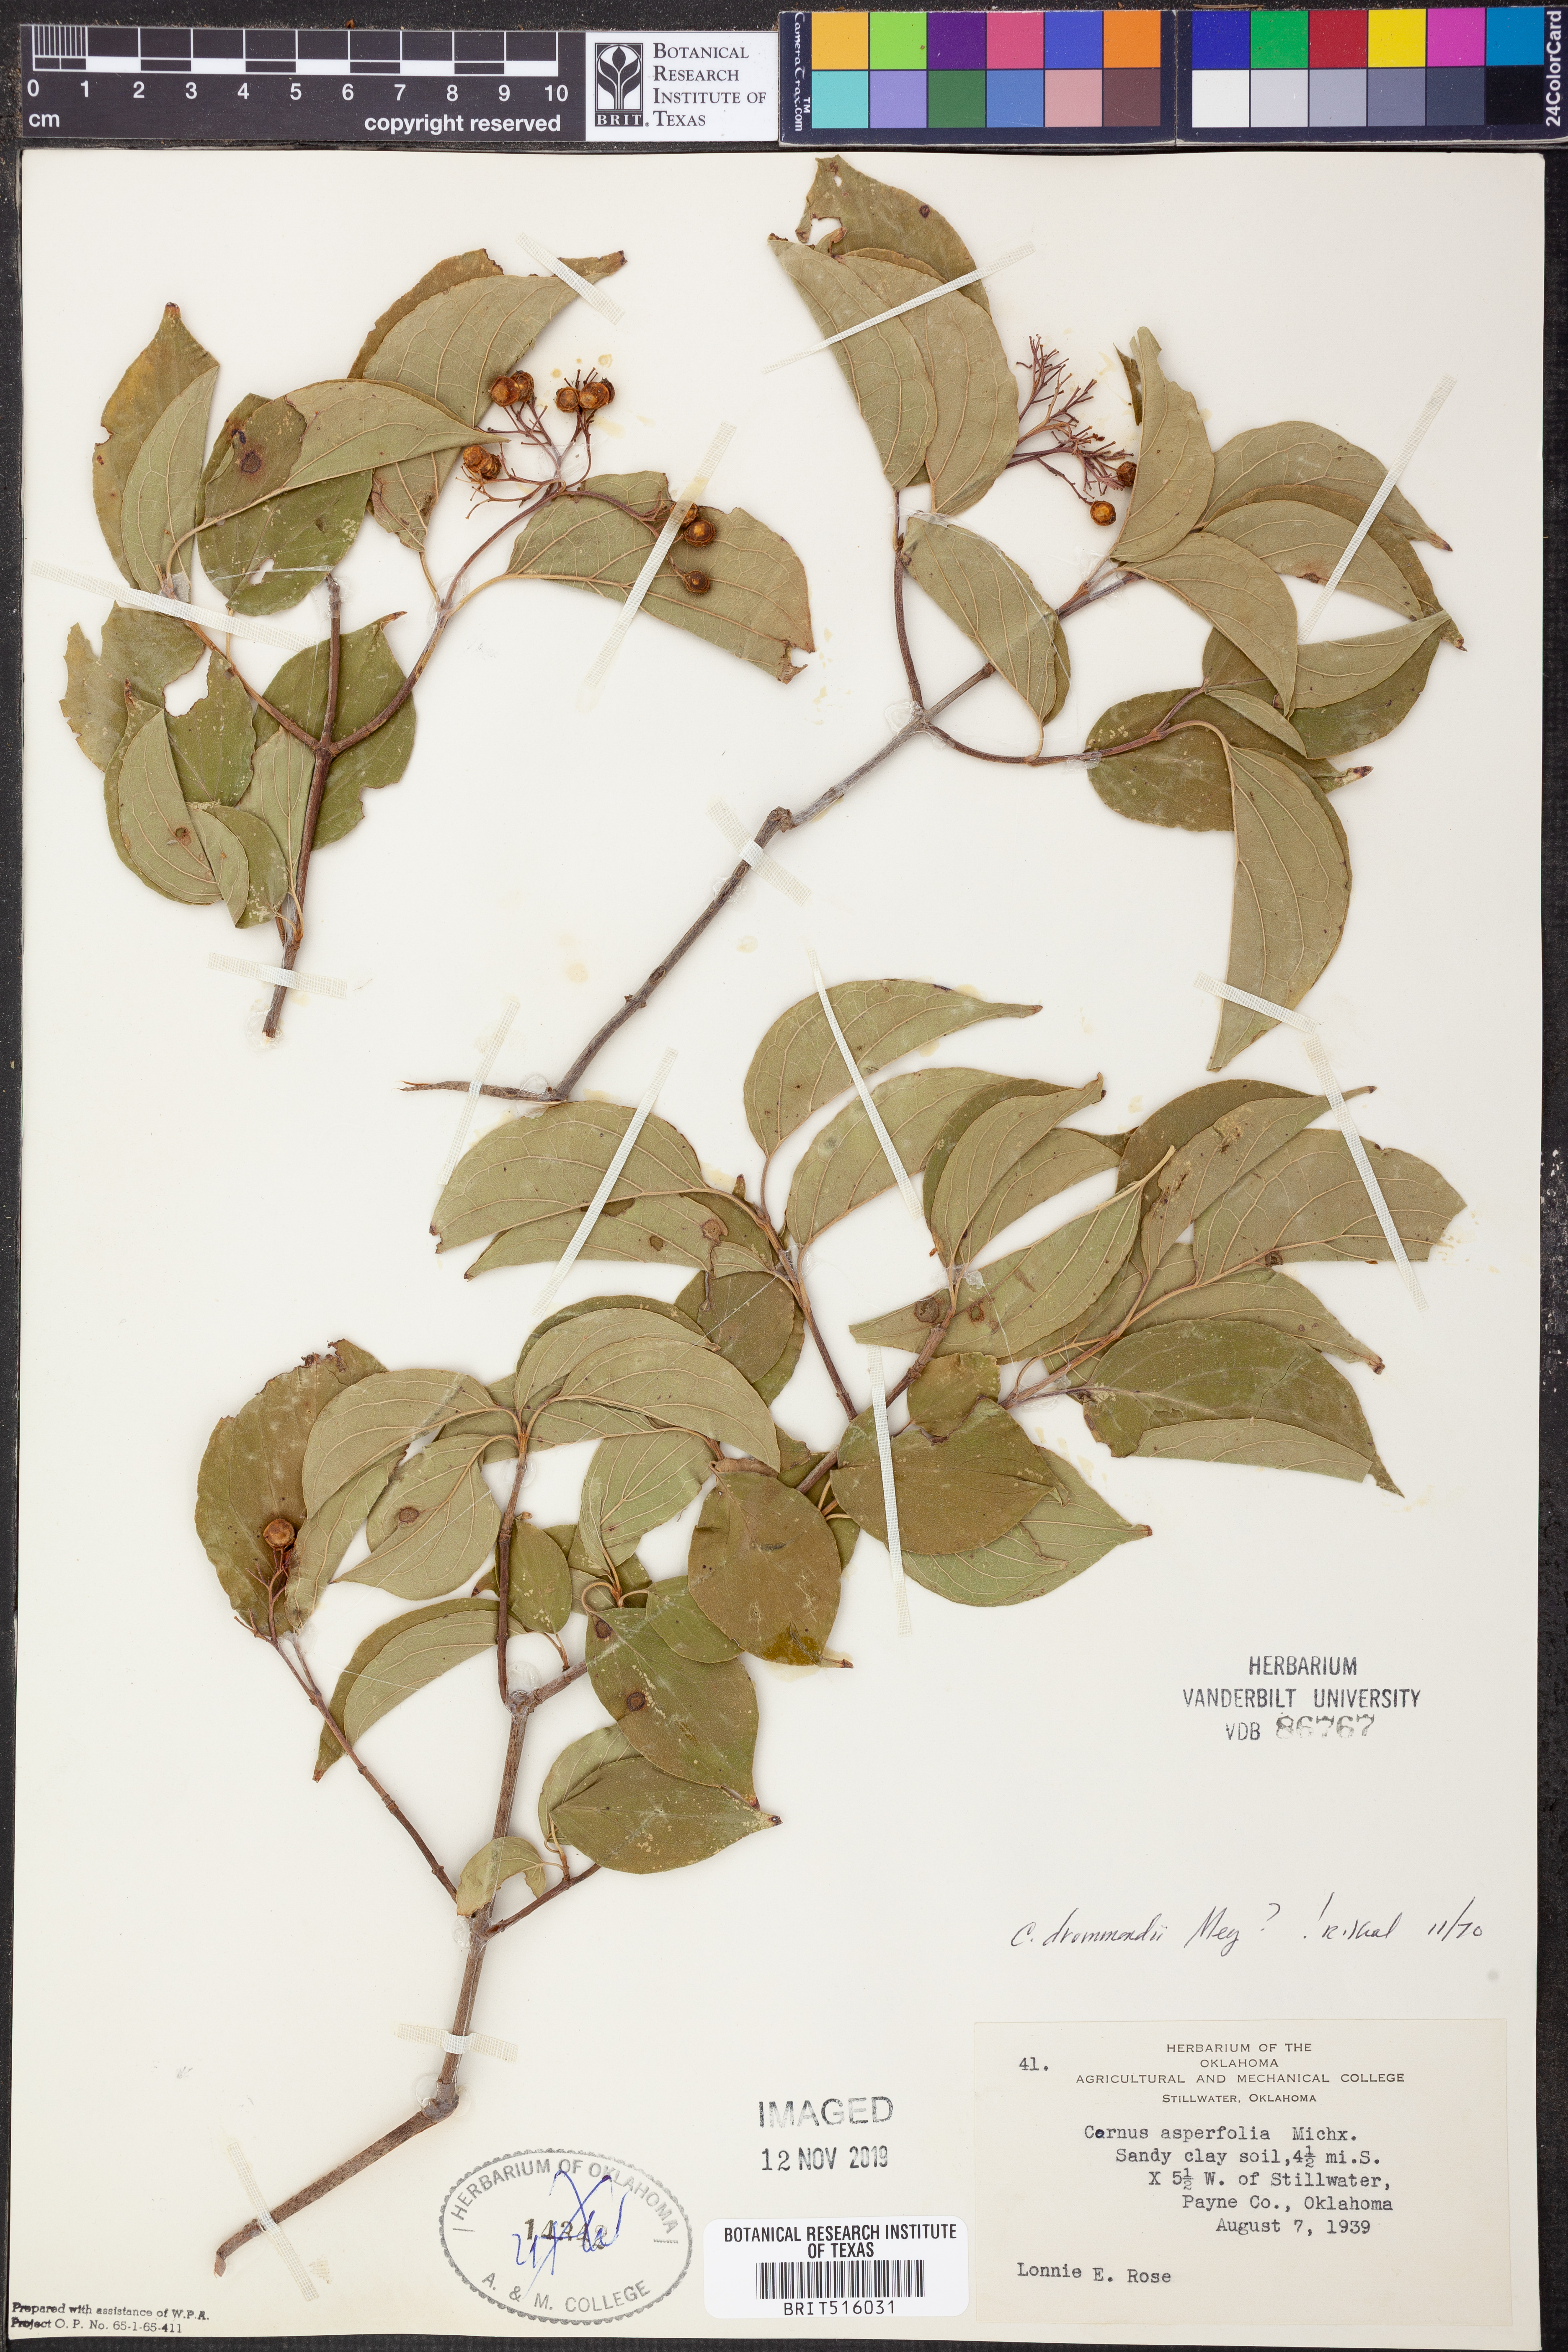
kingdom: Plantae
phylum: Tracheophyta
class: Magnoliopsida
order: Cornales
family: Cornaceae
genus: Cornus
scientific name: Cornus drummondii
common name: Rough-leaf dogwood
